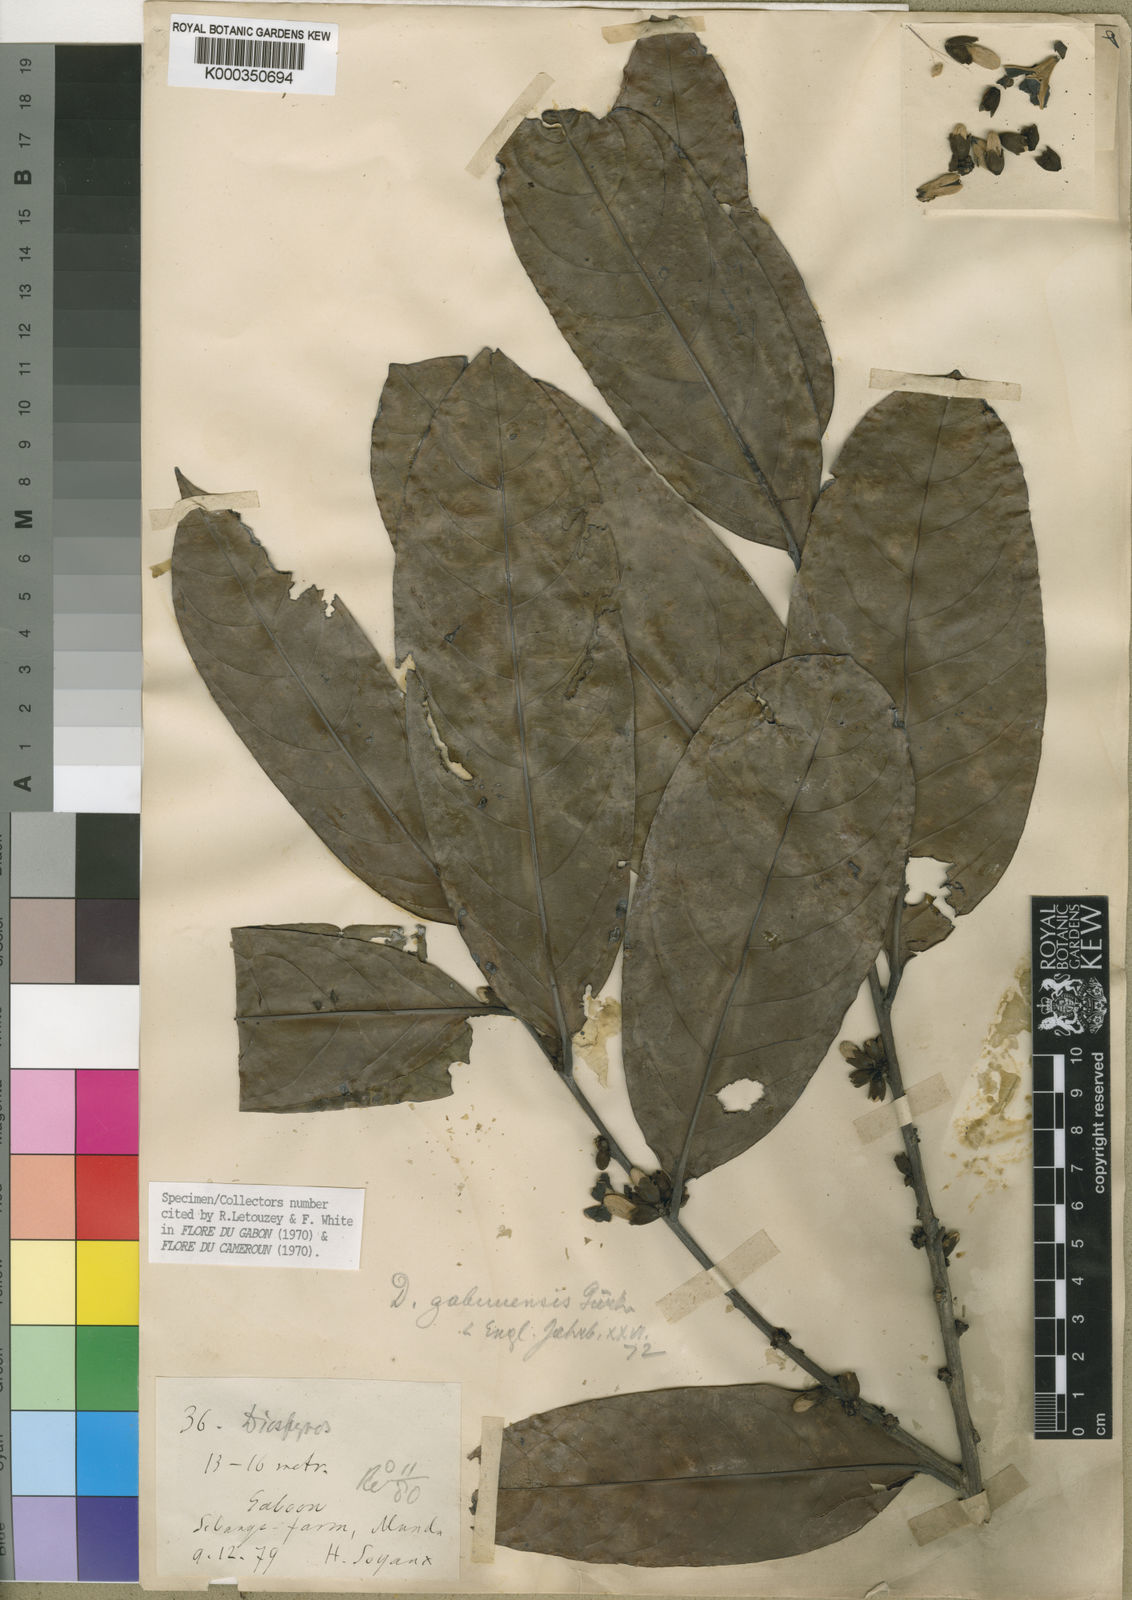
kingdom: Plantae
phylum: Tracheophyta
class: Magnoliopsida
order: Ericales
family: Ebenaceae
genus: Diospyros
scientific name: Diospyros
